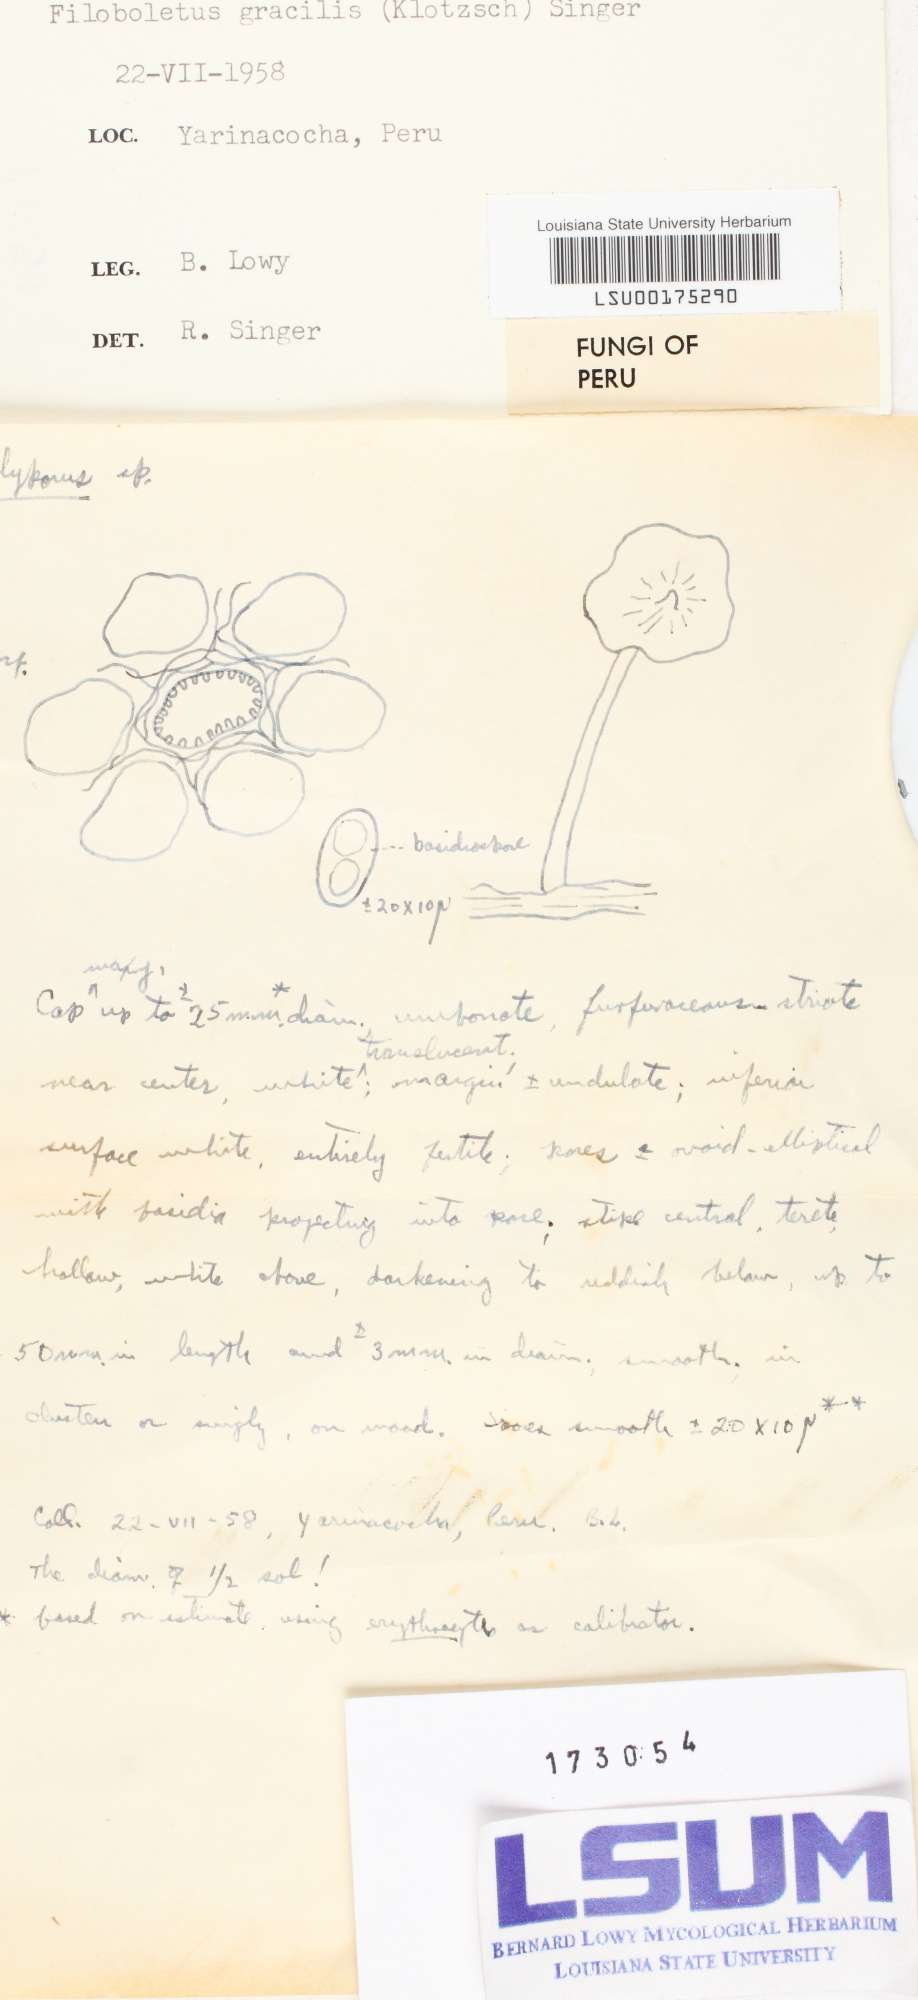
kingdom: Fungi
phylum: Basidiomycota
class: Agaricomycetes
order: Agaricales
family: Mycenaceae
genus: Filoboletus
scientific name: Filoboletus gracilis
